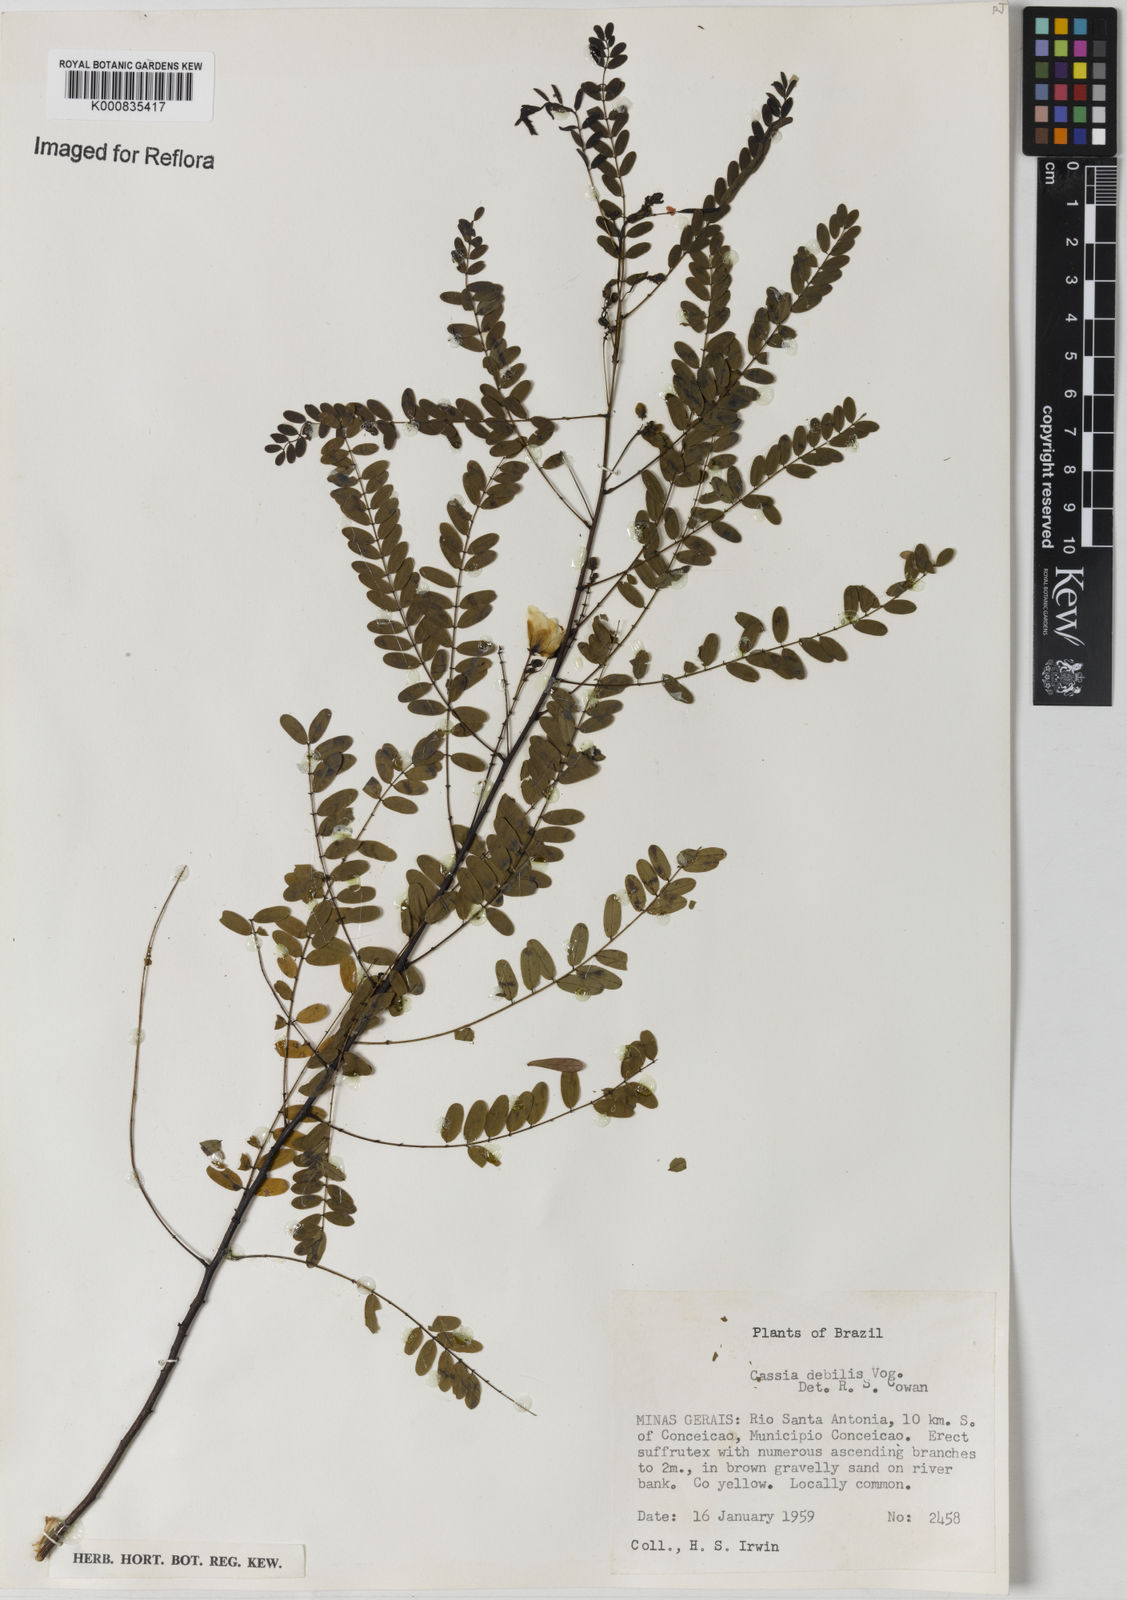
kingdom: Plantae
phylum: Tracheophyta
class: Magnoliopsida
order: Fabales
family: Fabaceae
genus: Chamaecrista
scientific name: Chamaecrista debilis
